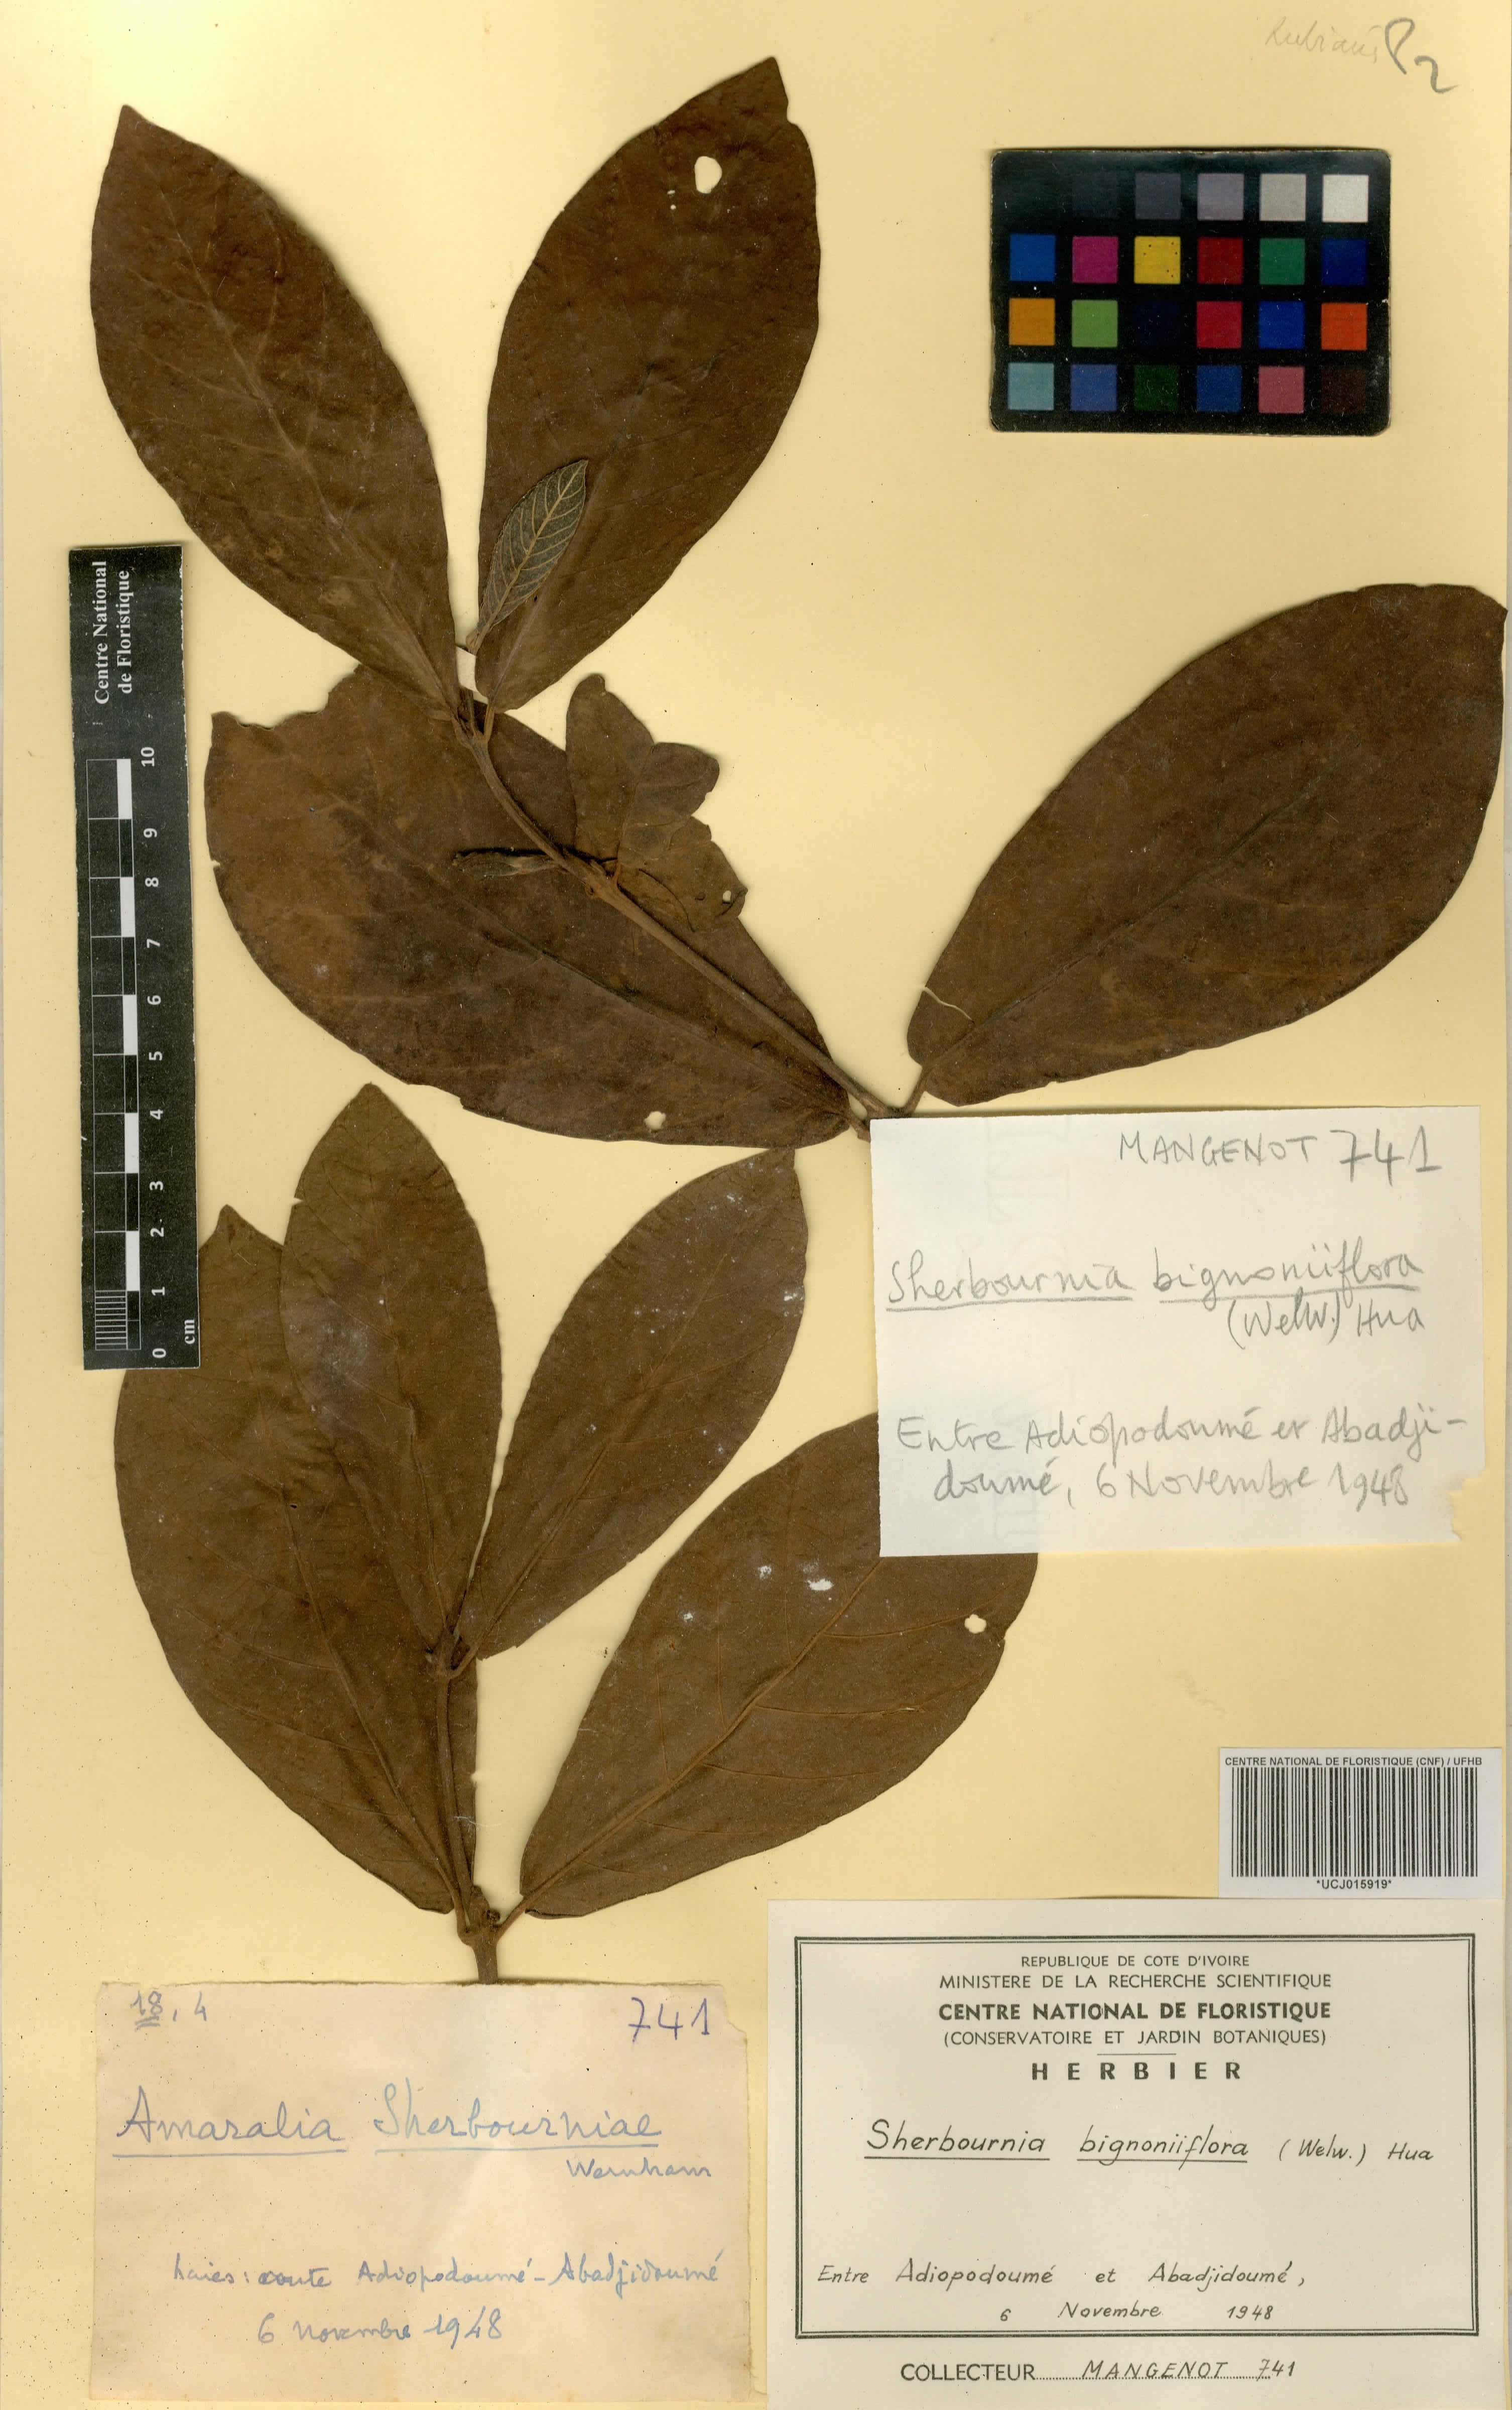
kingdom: Plantae
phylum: Tracheophyta
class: Magnoliopsida
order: Gentianales
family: Rubiaceae
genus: Sherbournia
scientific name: Sherbournia bignoniiflora
